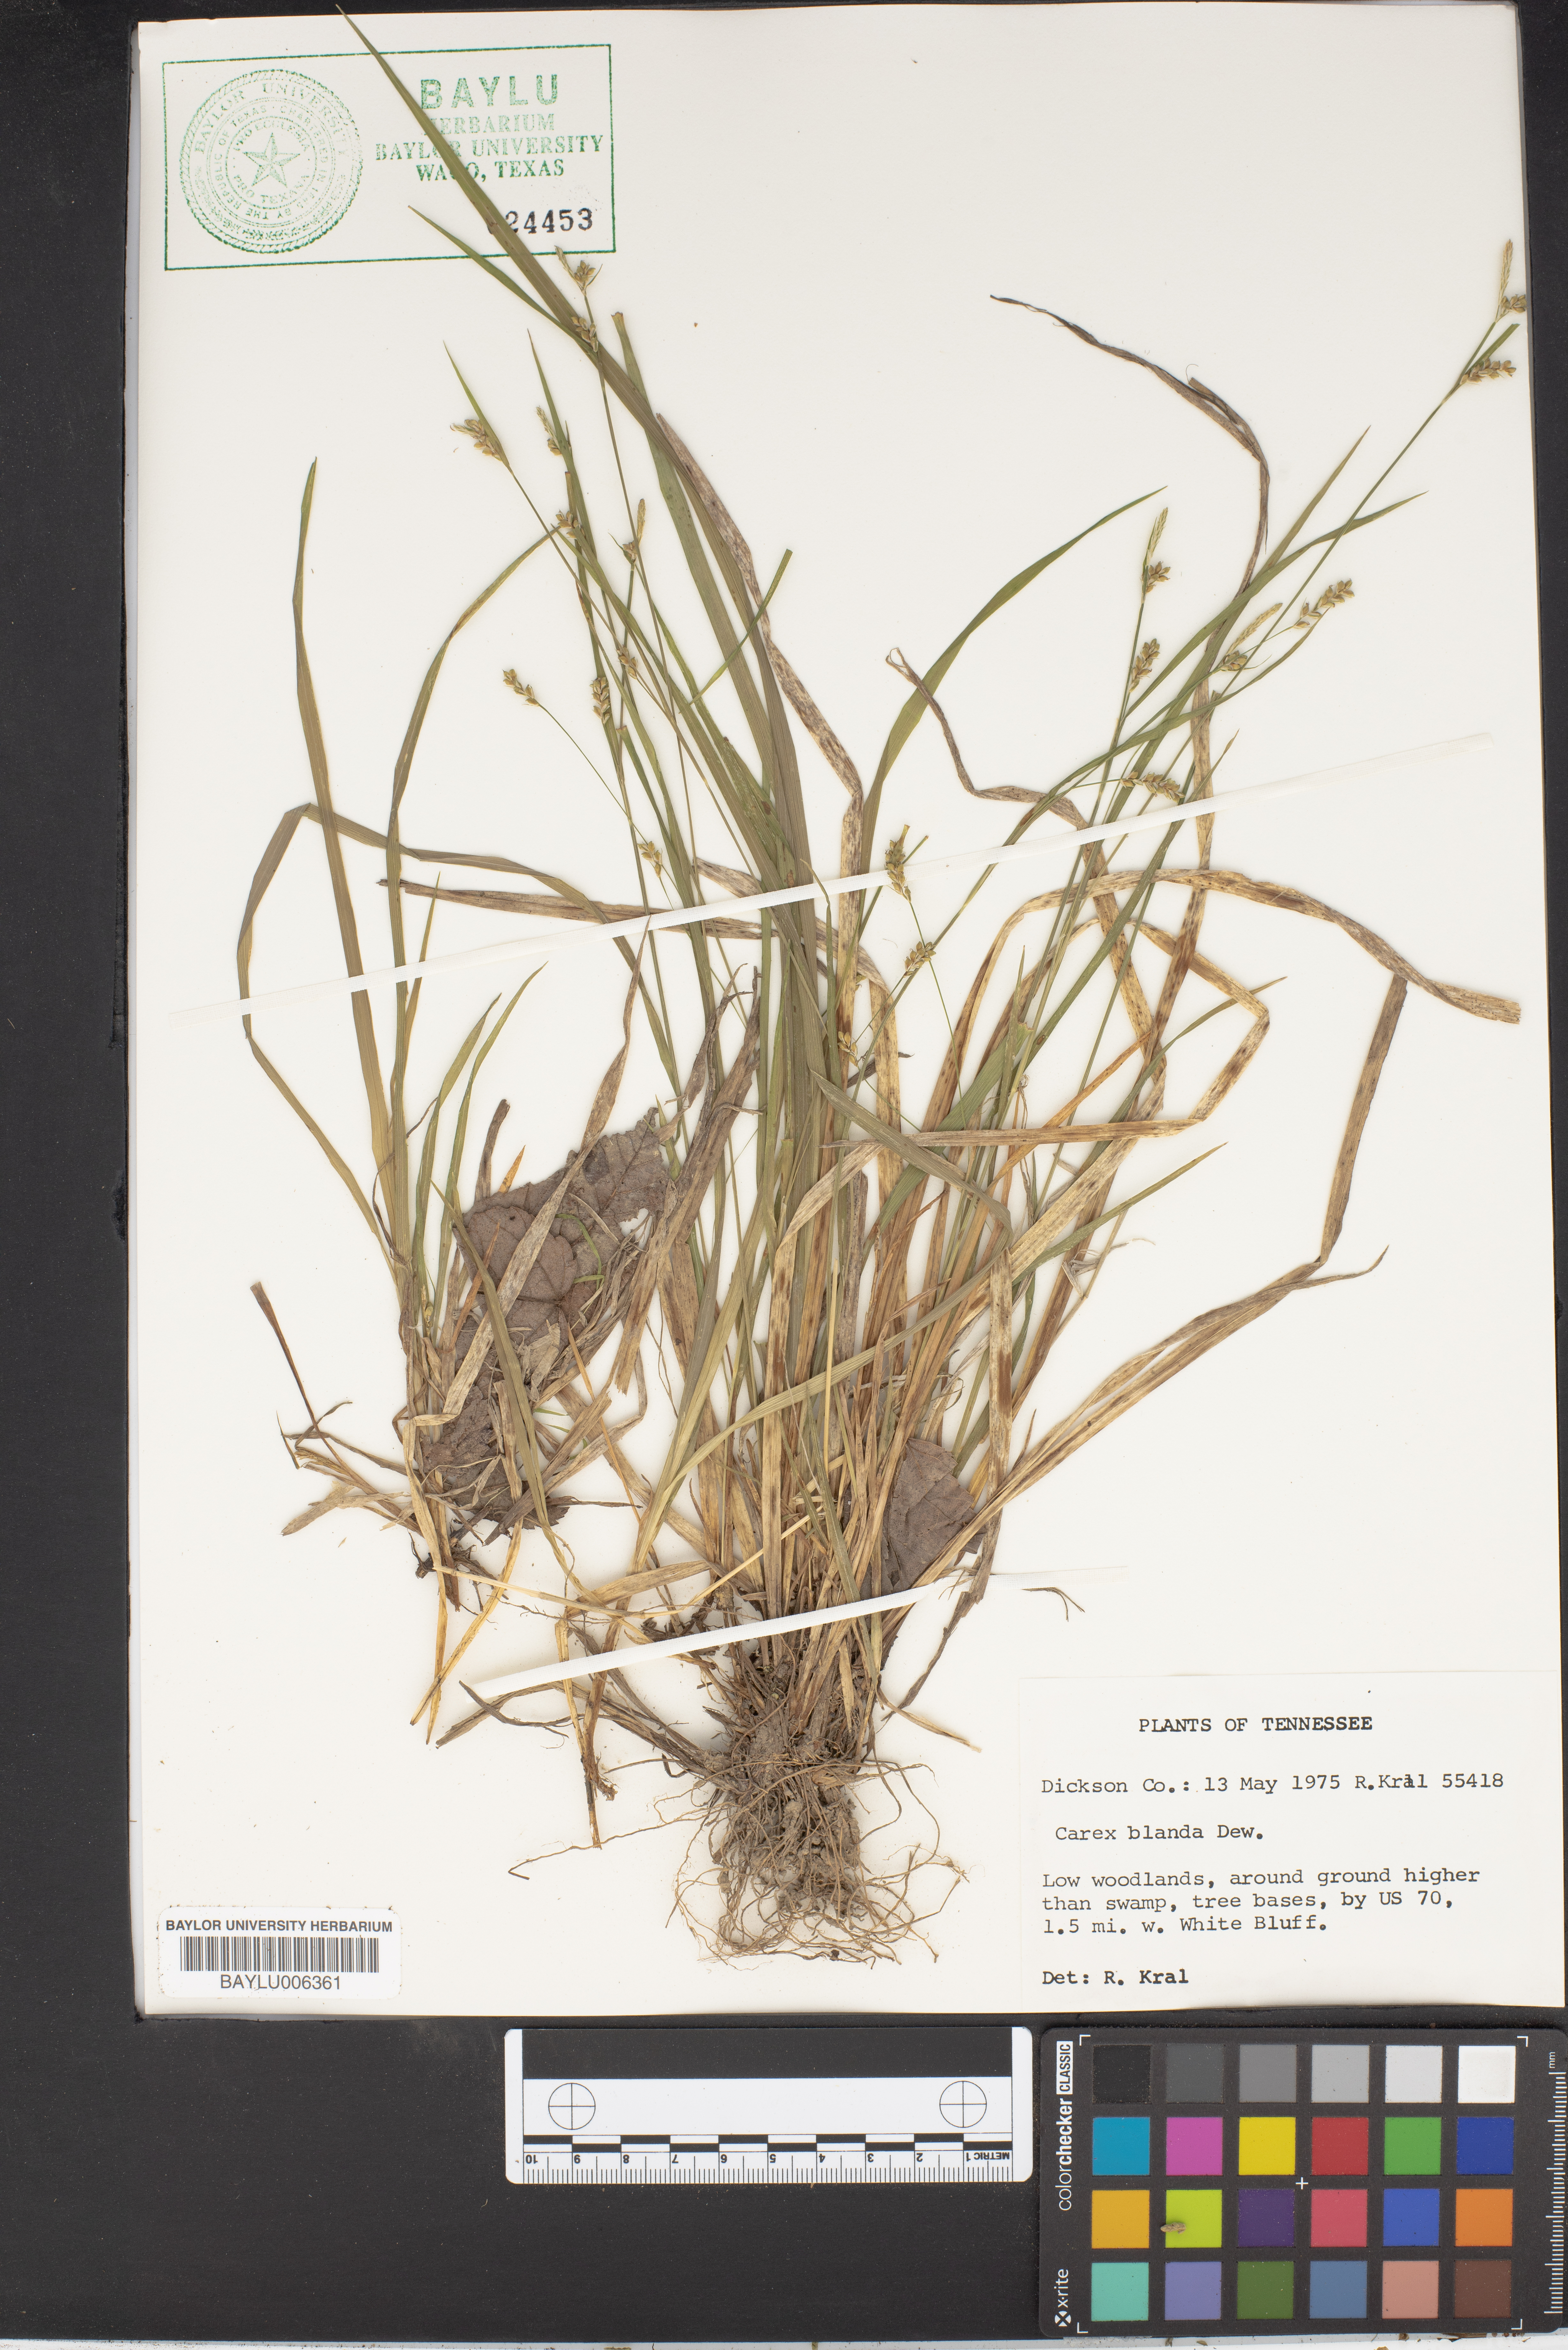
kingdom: Plantae
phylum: Tracheophyta
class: Liliopsida
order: Poales
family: Cyperaceae
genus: Carex
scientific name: Carex blanda
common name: Bland sedge
